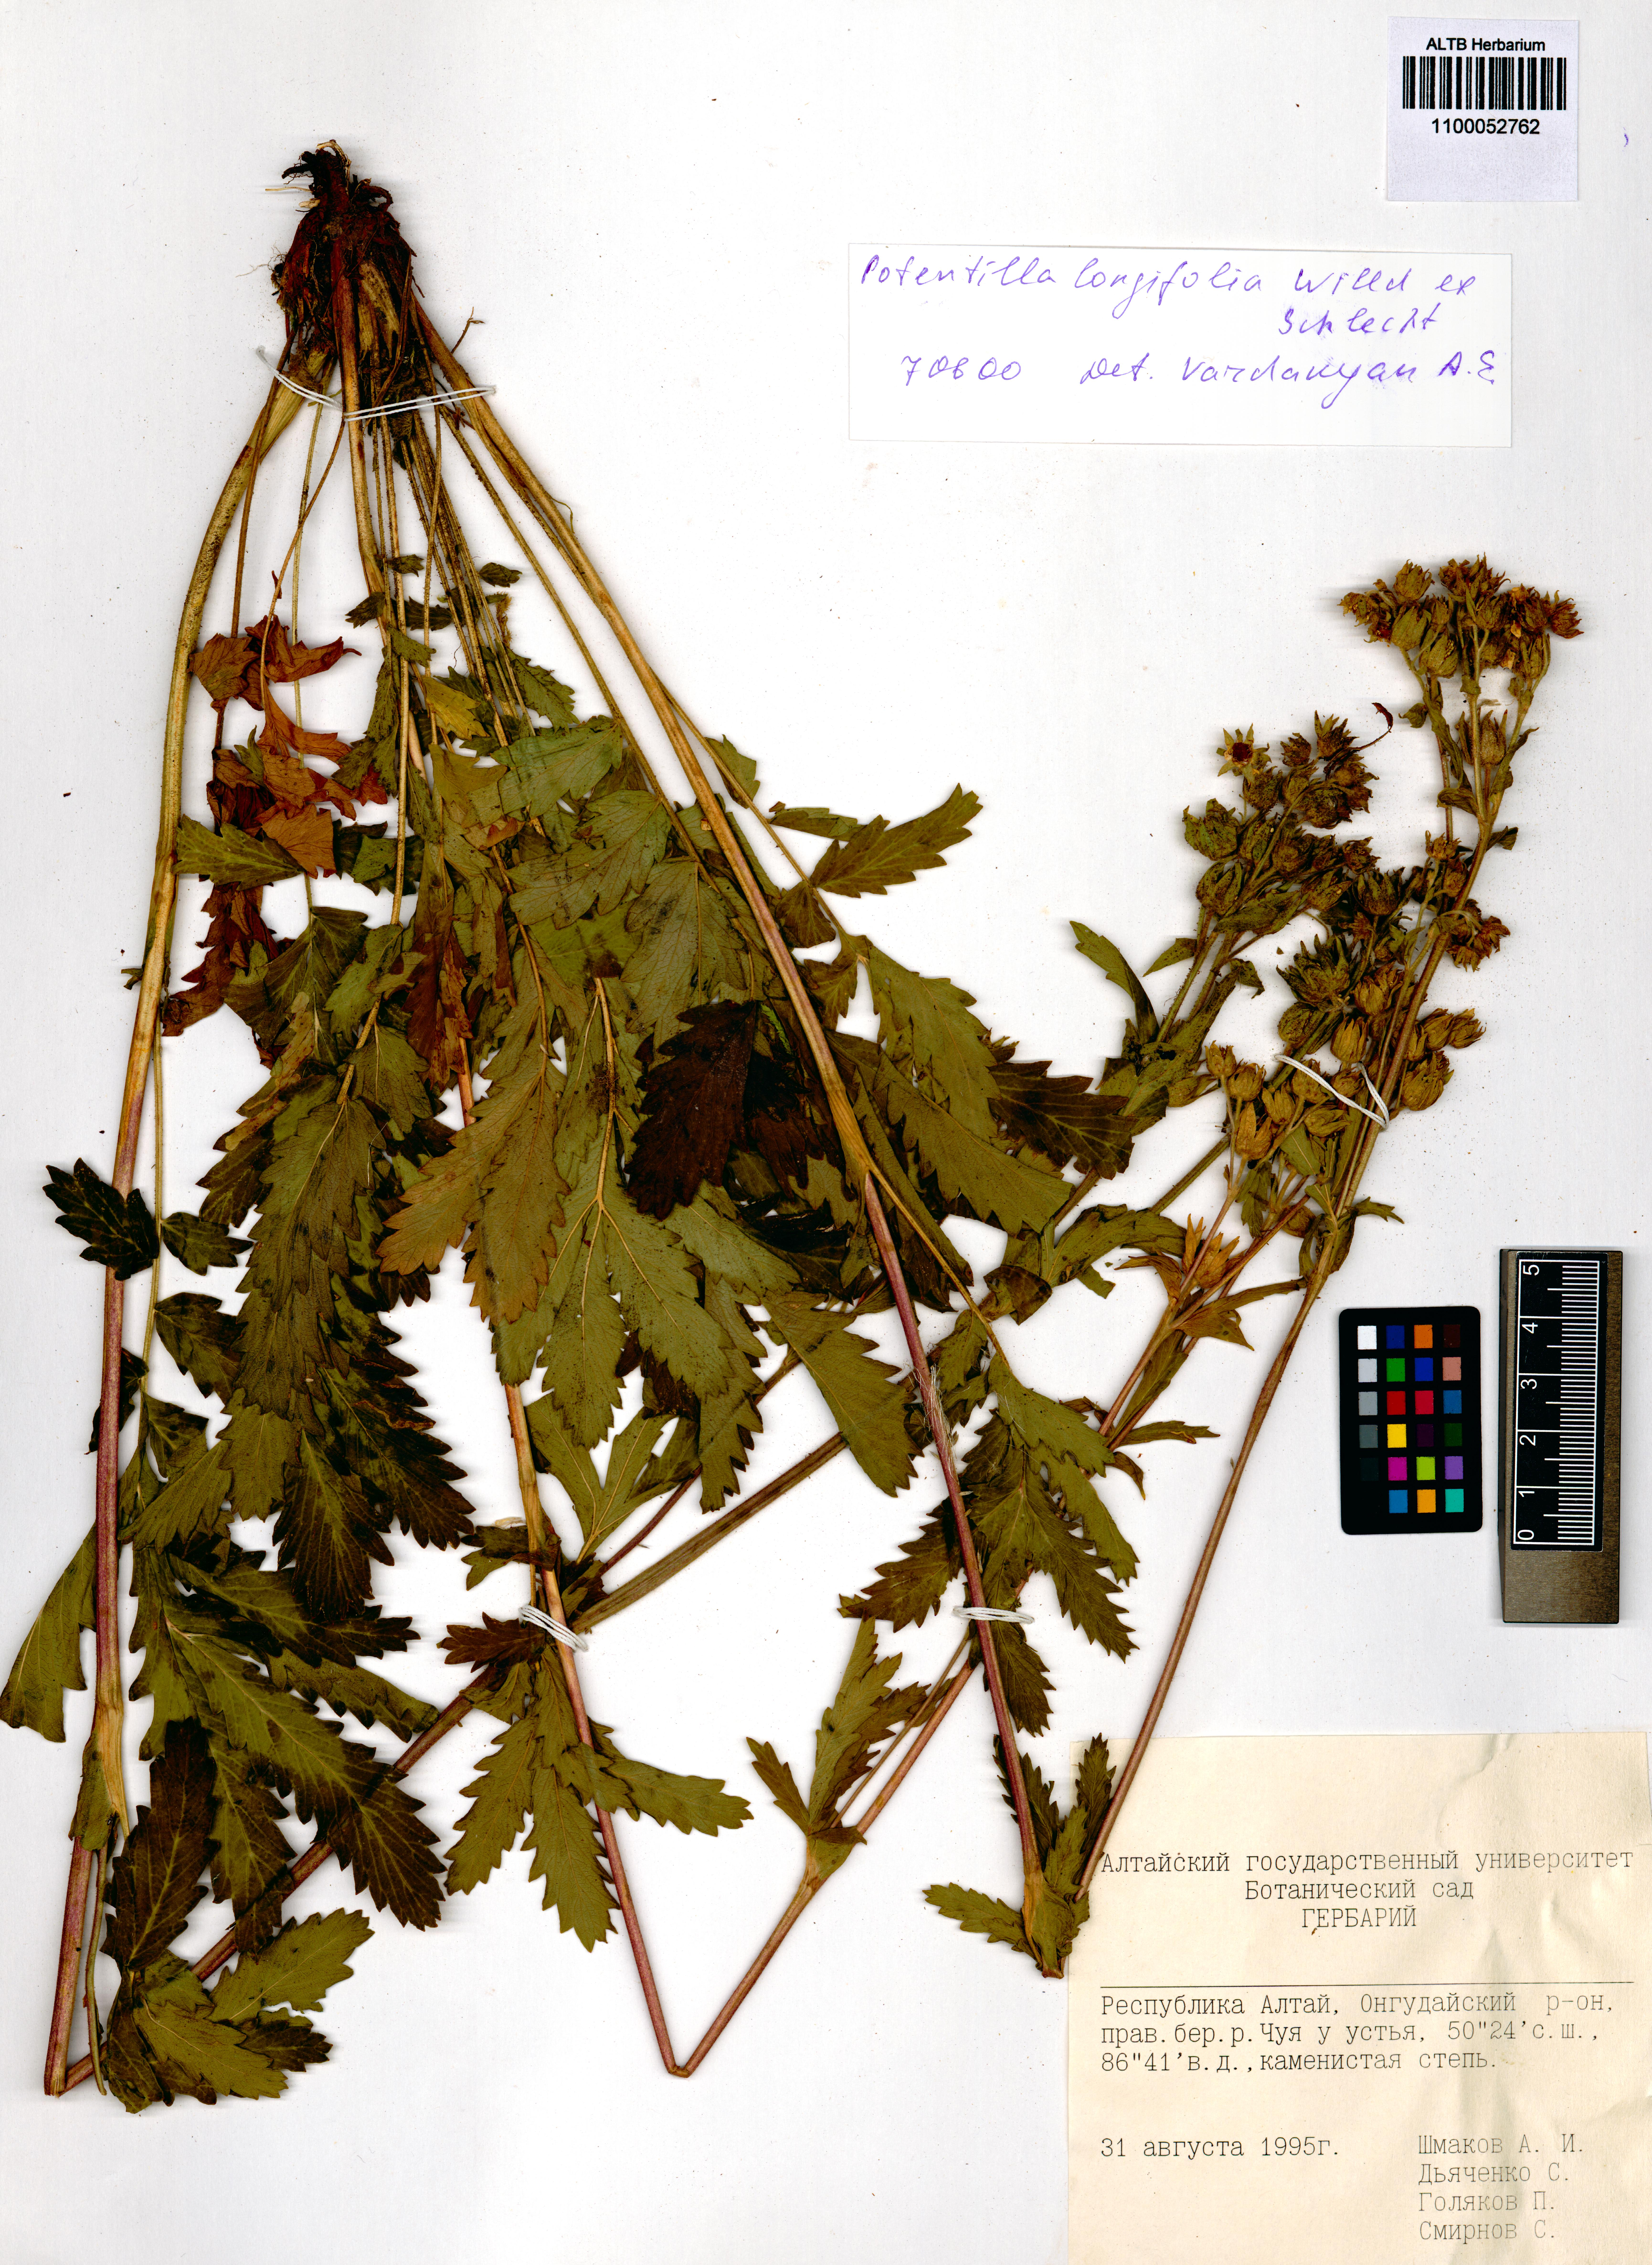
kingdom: Plantae
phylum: Tracheophyta
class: Magnoliopsida
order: Rosales
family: Rosaceae
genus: Potentilla
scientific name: Potentilla longifolia
